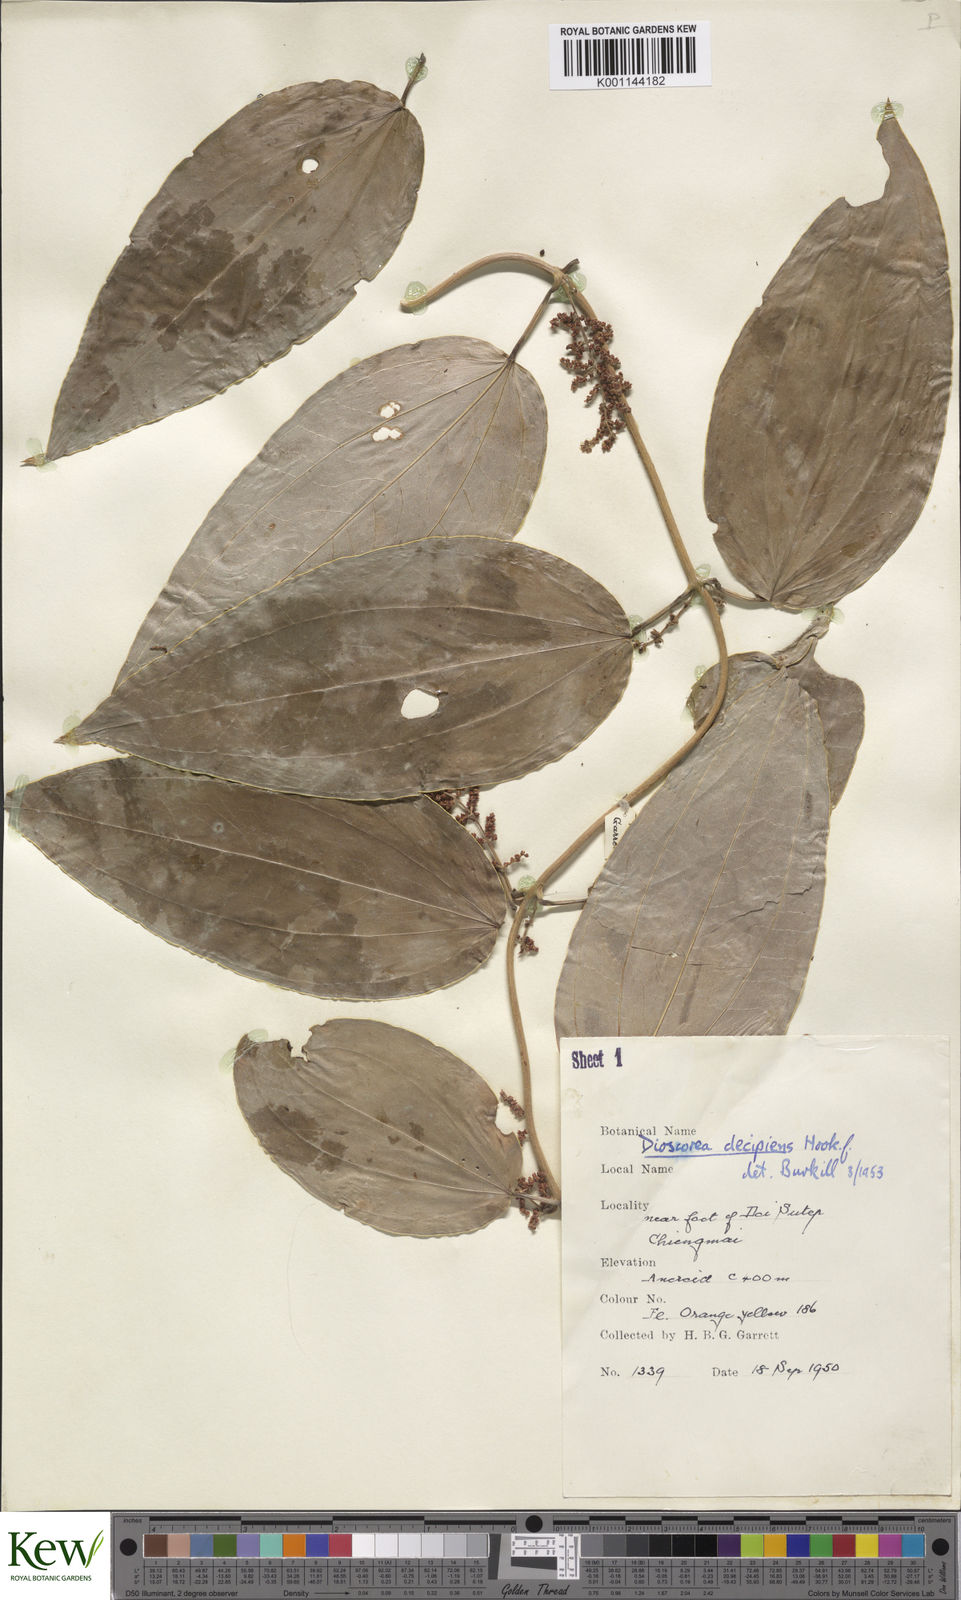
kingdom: Plantae
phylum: Tracheophyta
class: Liliopsida
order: Dioscoreales
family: Dioscoreaceae
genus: Dioscorea
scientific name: Dioscorea decipiens
